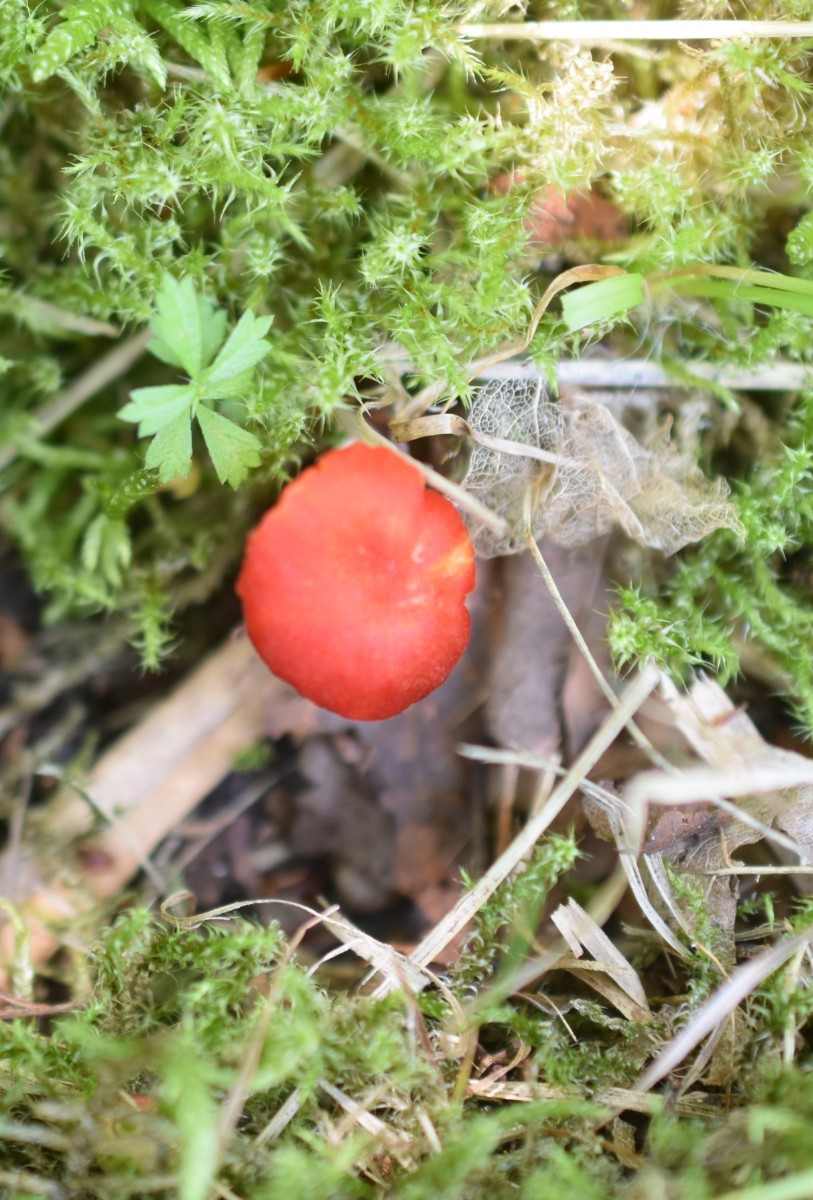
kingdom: Fungi
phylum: Basidiomycota
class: Agaricomycetes
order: Agaricales
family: Hygrophoraceae
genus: Hygrocybe
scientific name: Hygrocybe helobia
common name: hvidløgs-vokshat
